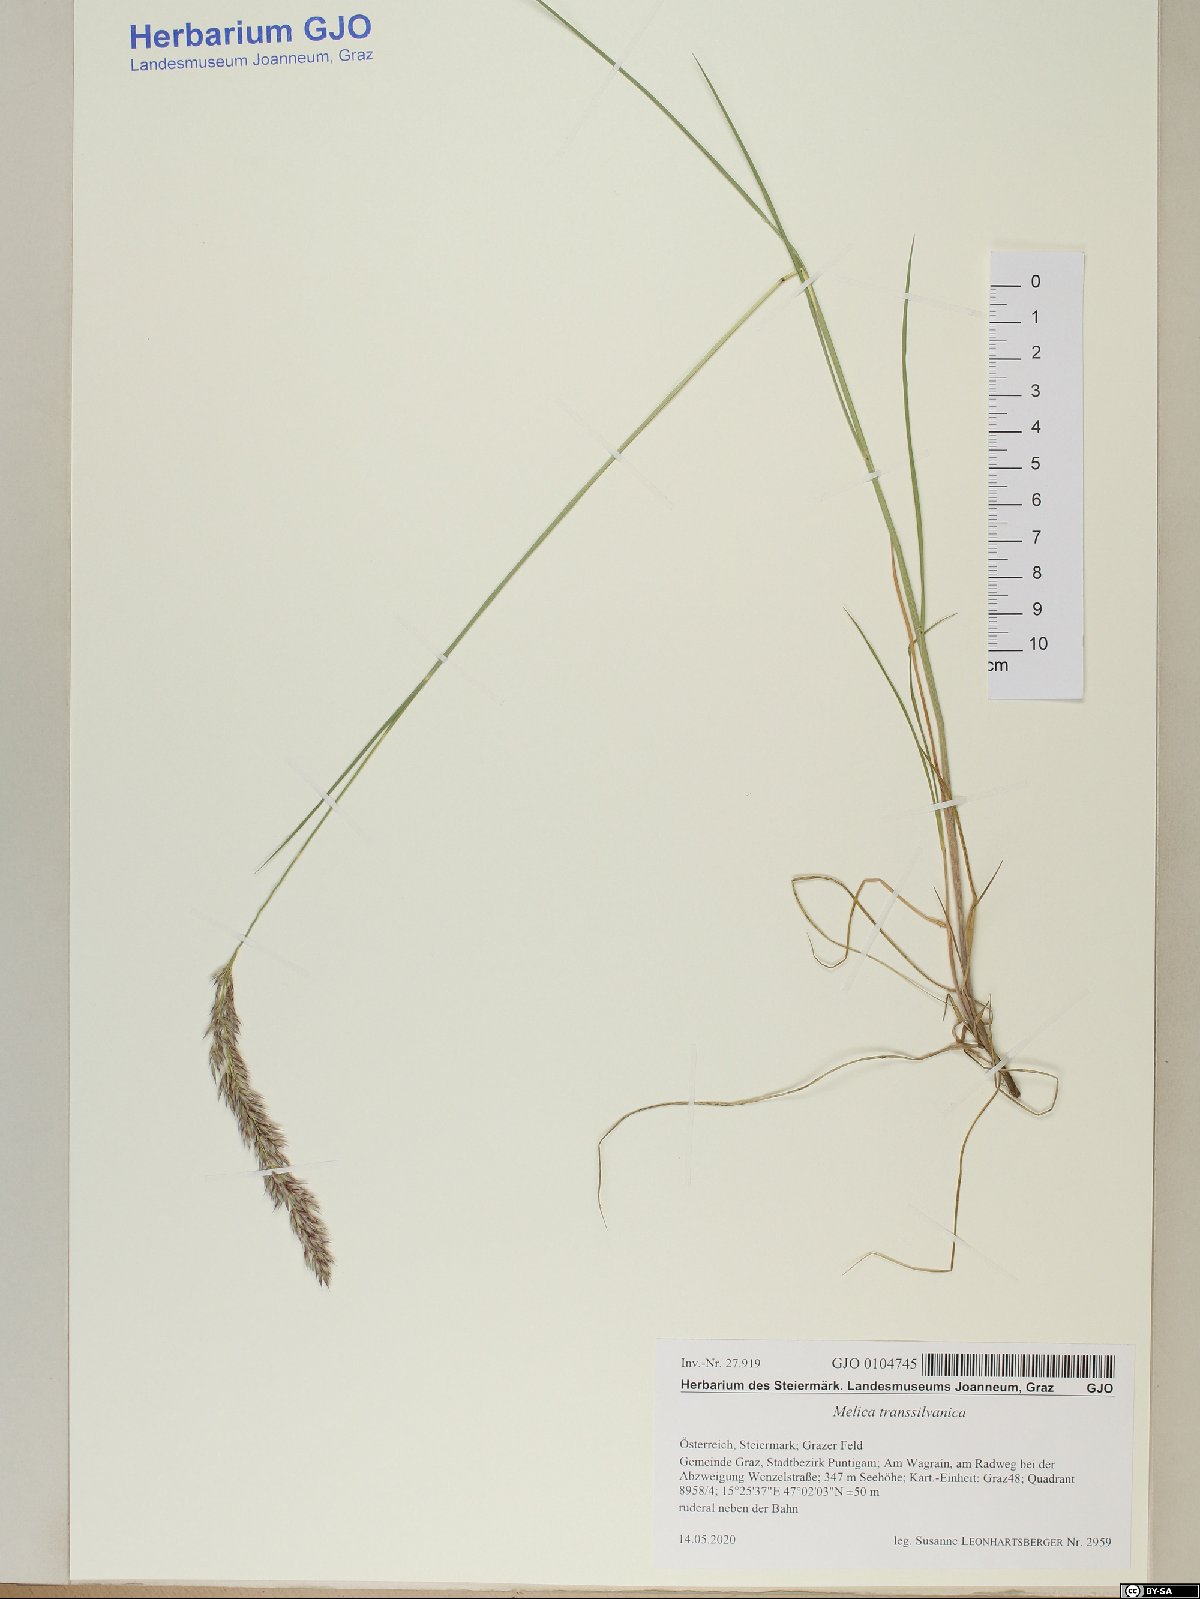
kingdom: Plantae
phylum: Tracheophyta
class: Liliopsida
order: Poales
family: Poaceae
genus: Melica
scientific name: Melica transsilvanica
